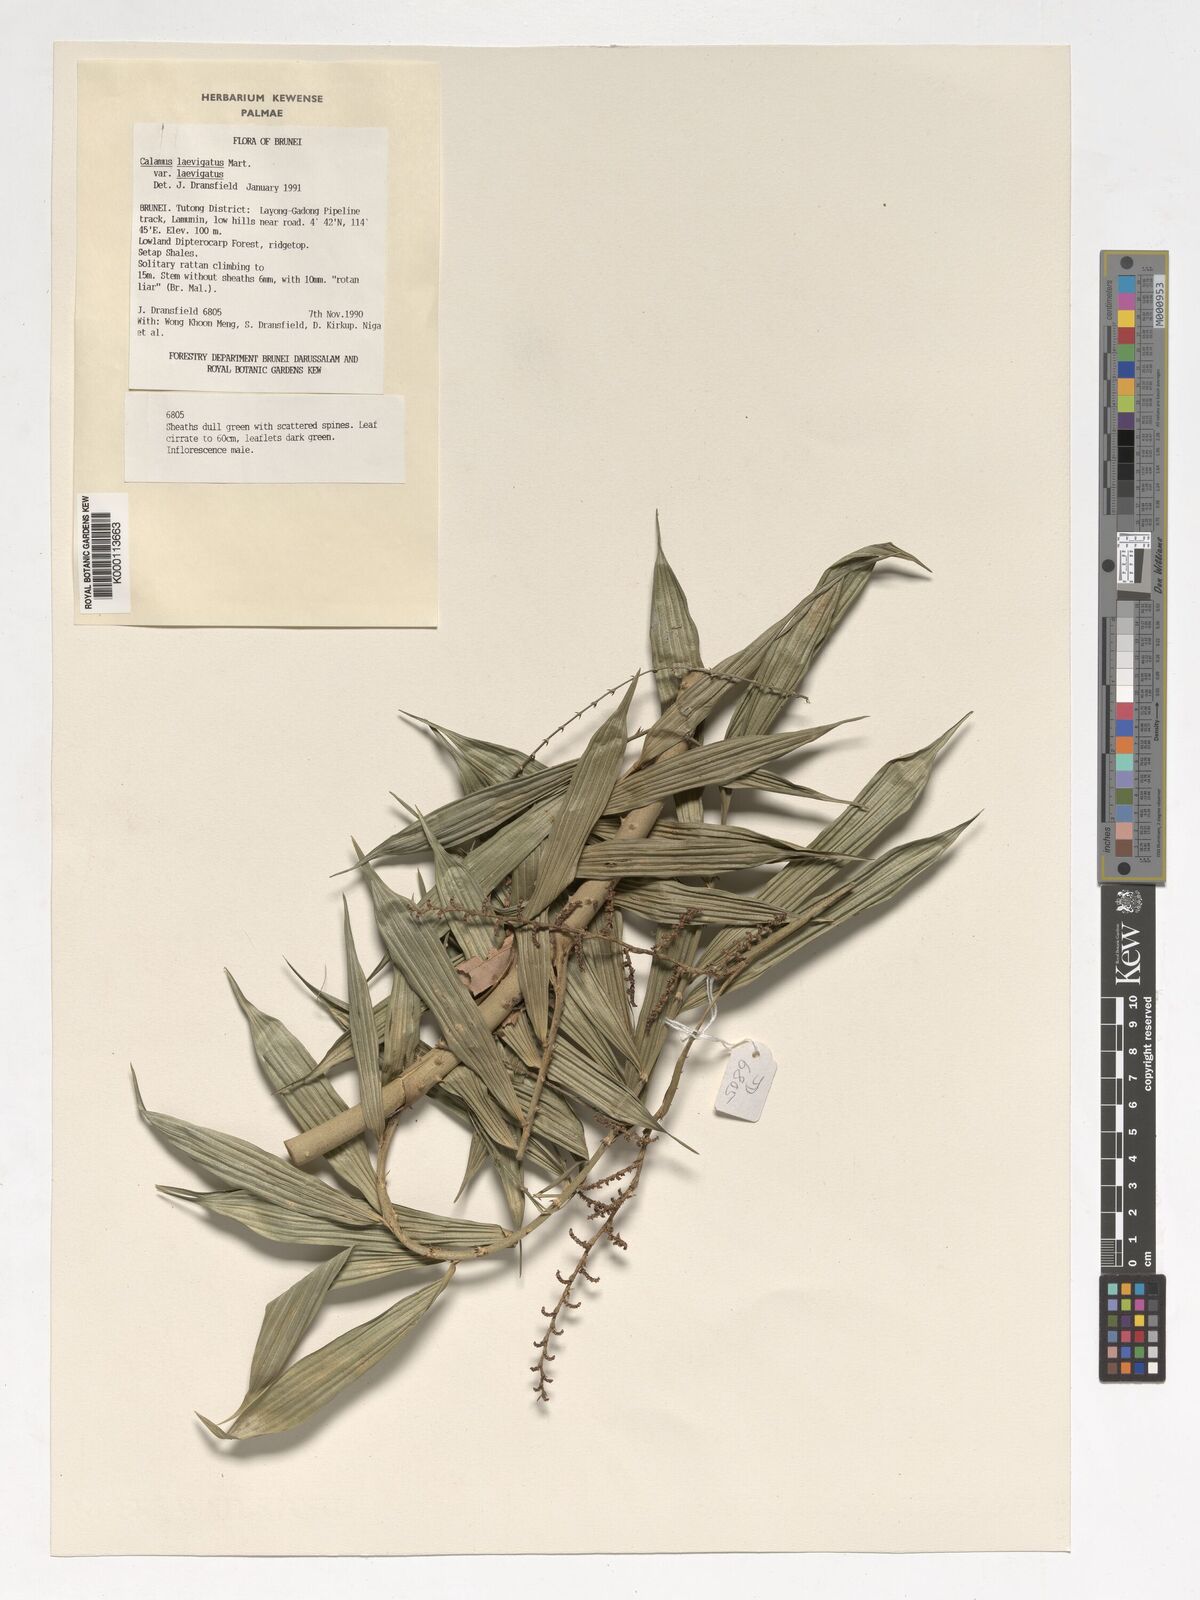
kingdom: Plantae
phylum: Tracheophyta
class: Liliopsida
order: Arecales
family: Arecaceae
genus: Calamus
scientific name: Calamus
